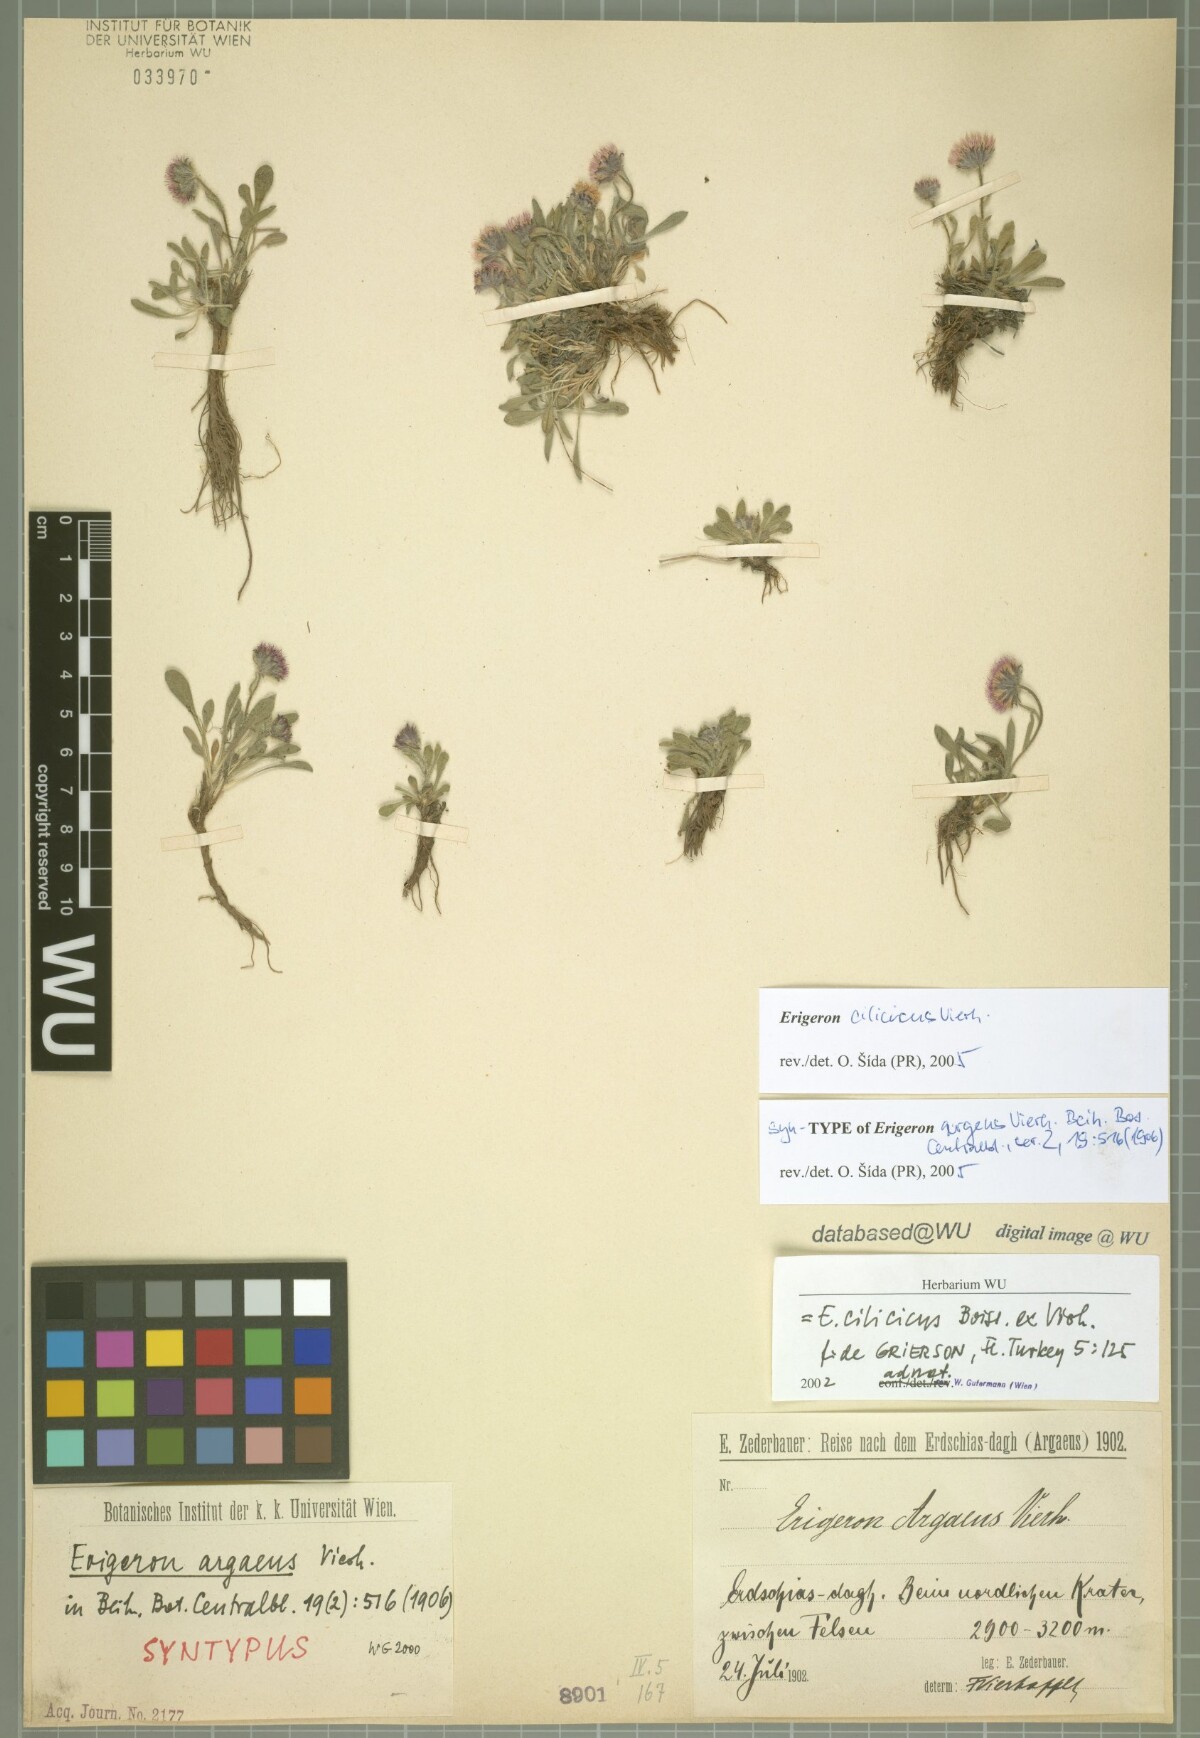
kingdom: Plantae
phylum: Tracheophyta
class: Magnoliopsida
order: Asterales
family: Asteraceae
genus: Erigeron
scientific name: Erigeron cilicicus
